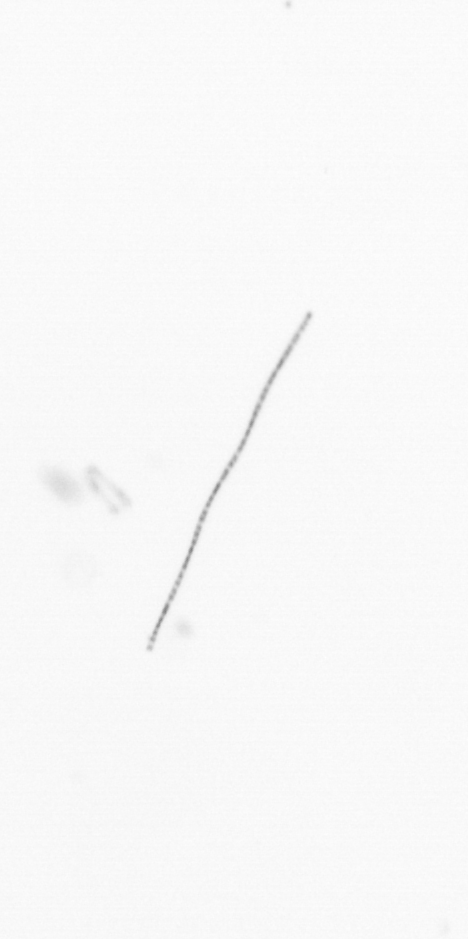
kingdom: Chromista
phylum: Ochrophyta
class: Bacillariophyceae
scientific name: Bacillariophyceae
